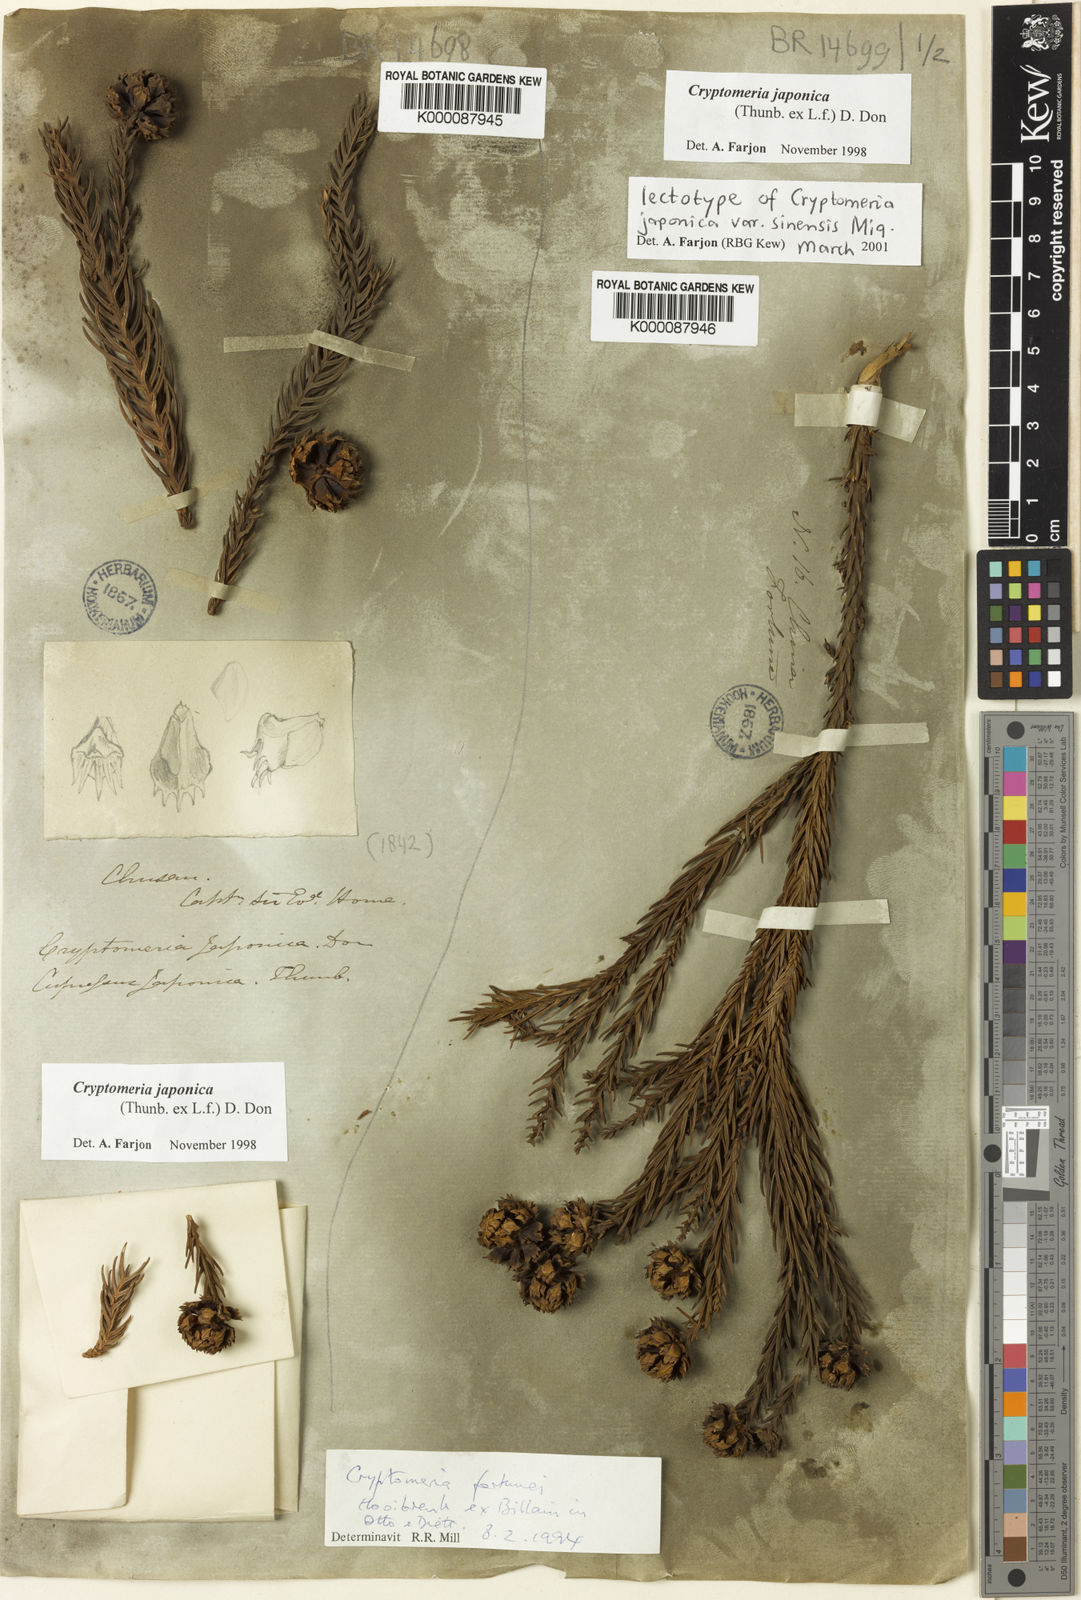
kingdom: Plantae
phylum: Tracheophyta
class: Pinopsida
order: Pinales
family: Cupressaceae
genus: Cryptomeria
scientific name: Cryptomeria japonica
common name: Japanese cedar
